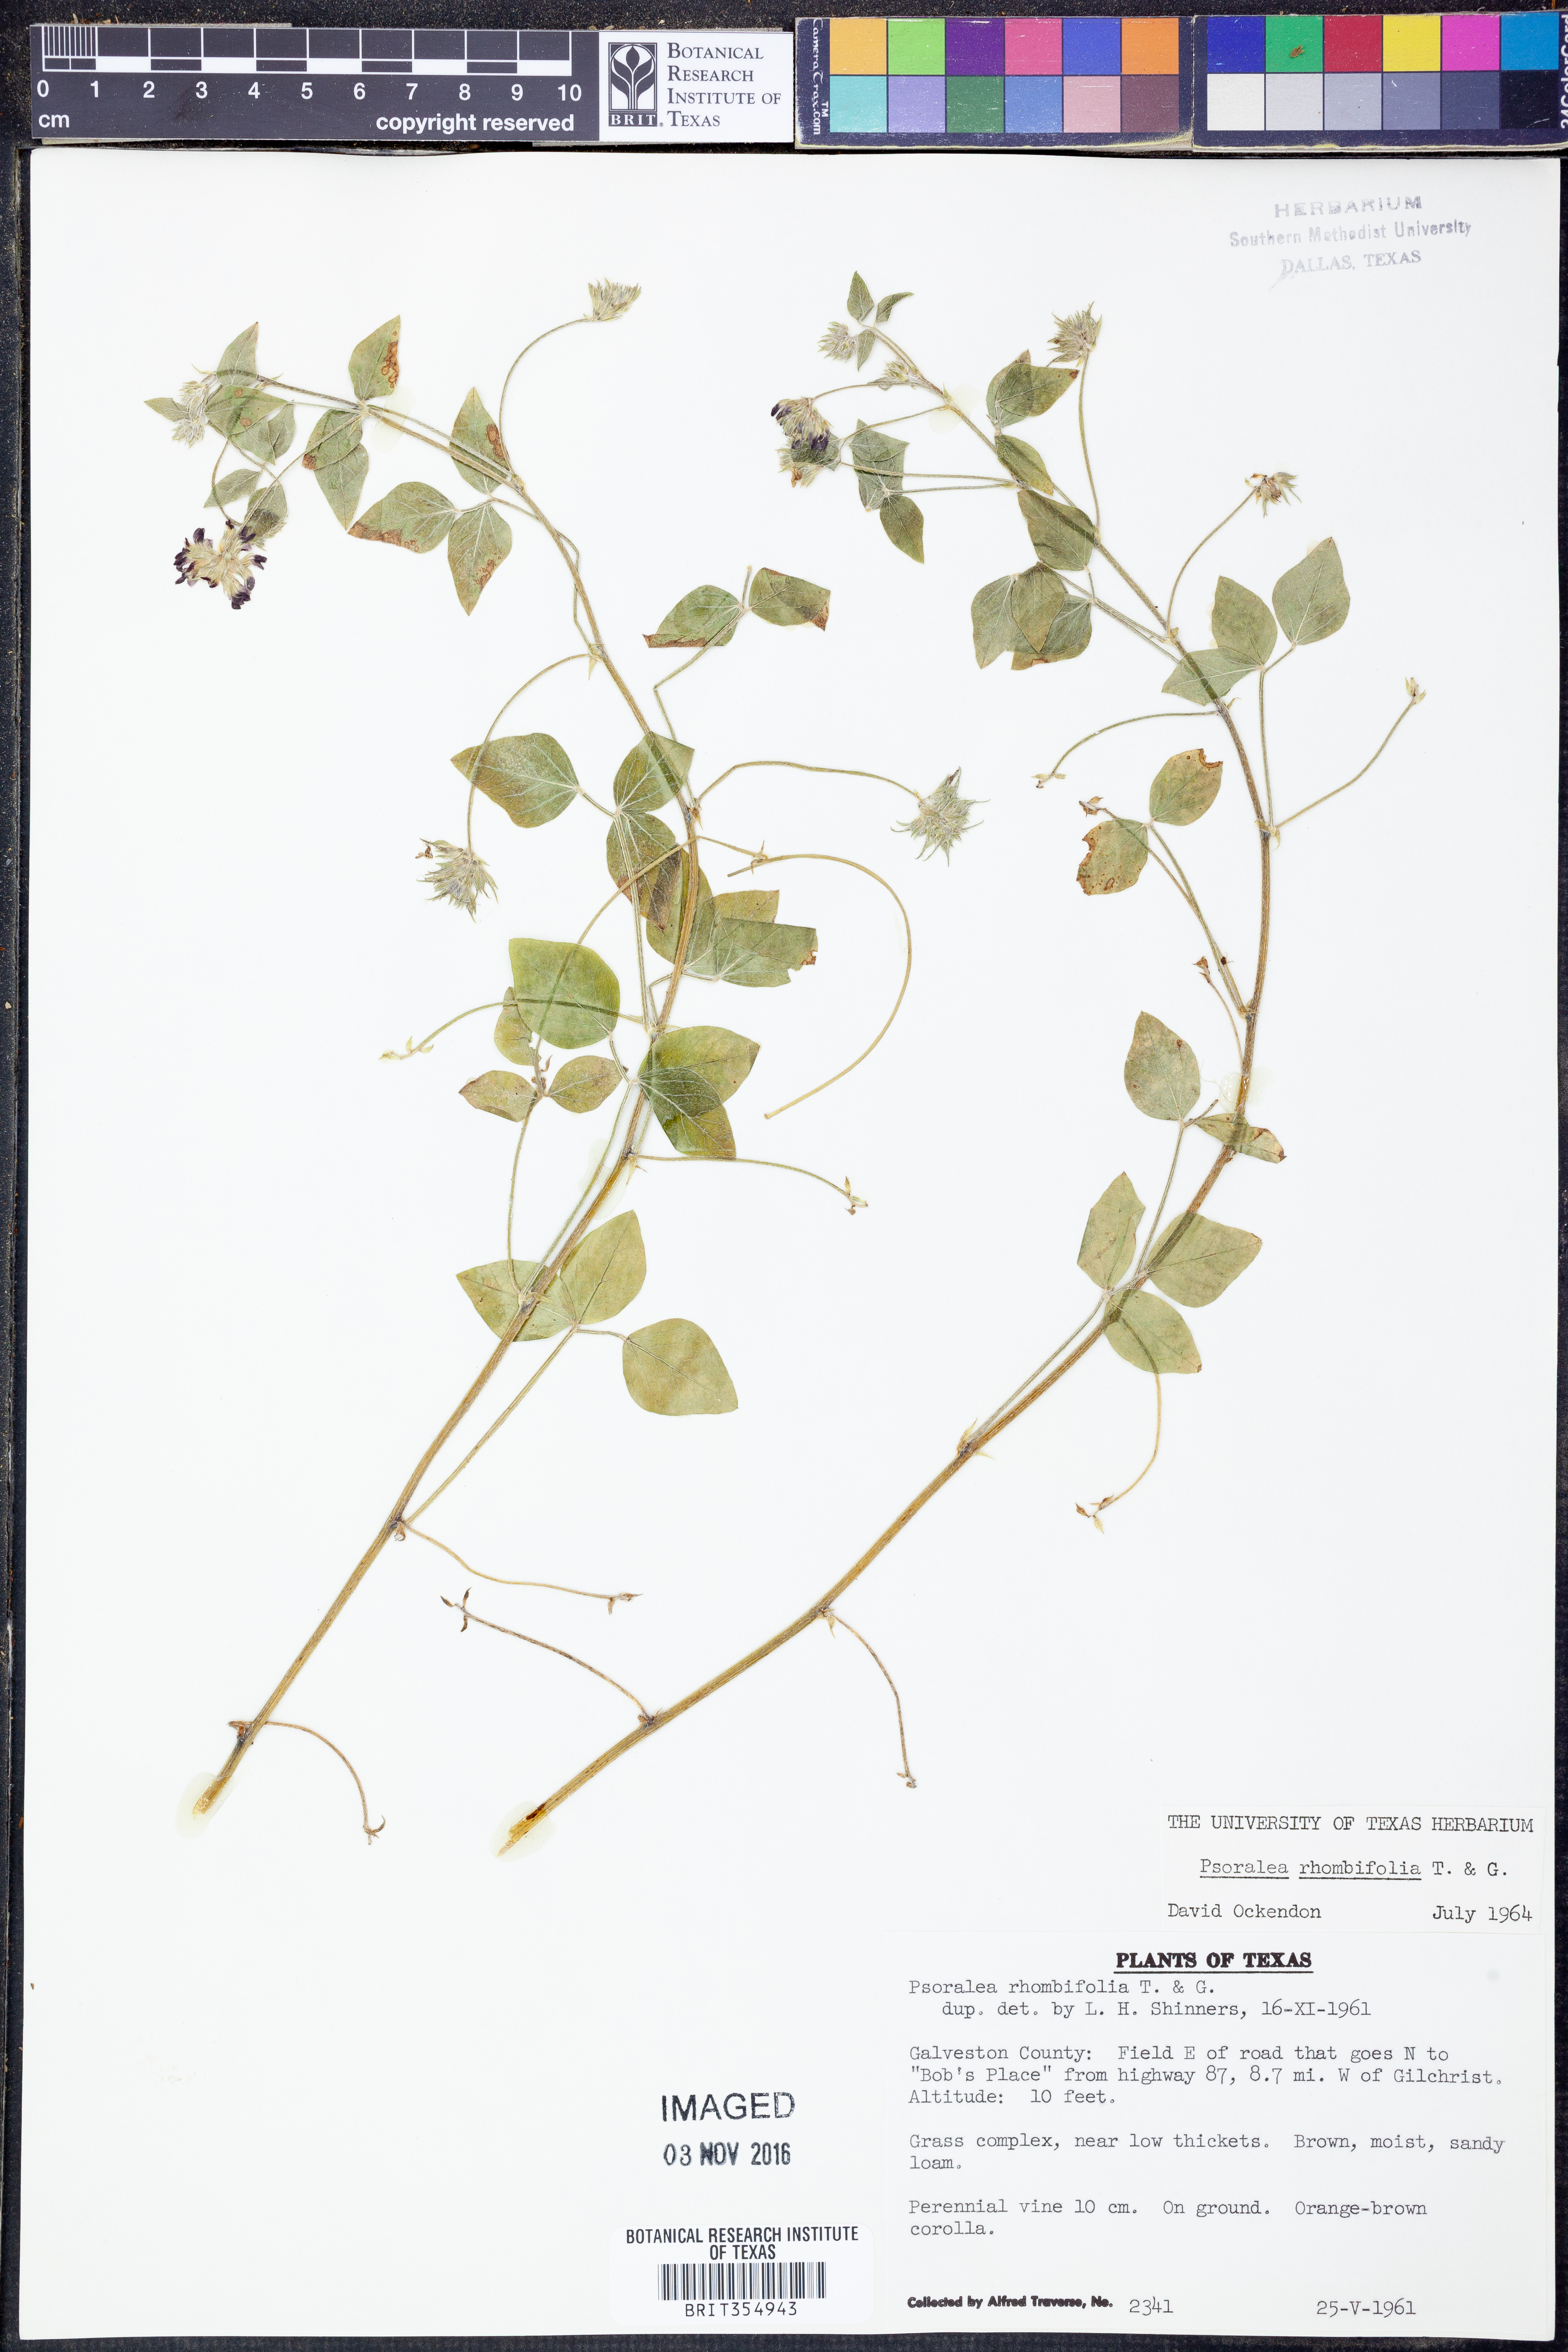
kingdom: Plantae
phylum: Tracheophyta
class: Magnoliopsida
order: Fabales
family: Fabaceae
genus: Pediomelum
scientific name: Pediomelum rhombifolium
